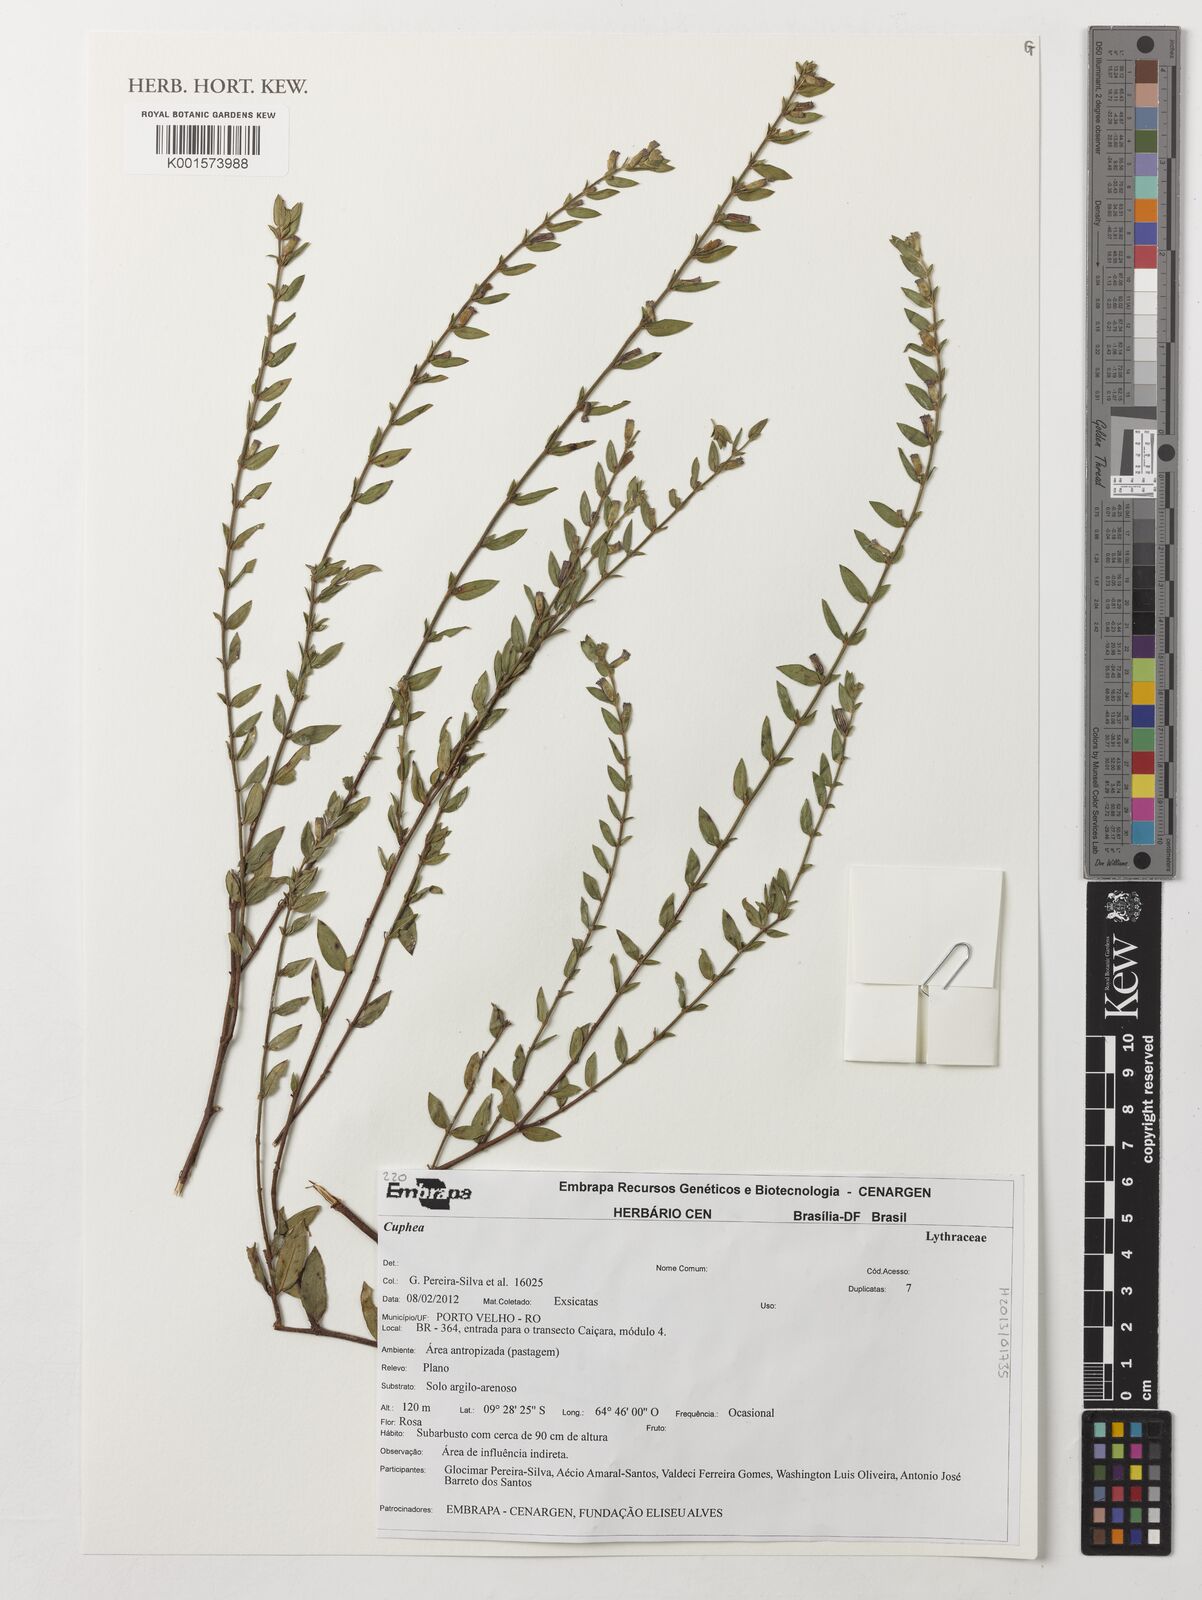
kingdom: Plantae
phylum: Tracheophyta
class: Magnoliopsida
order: Myrtales
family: Lythraceae
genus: Cuphea
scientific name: Cuphea
